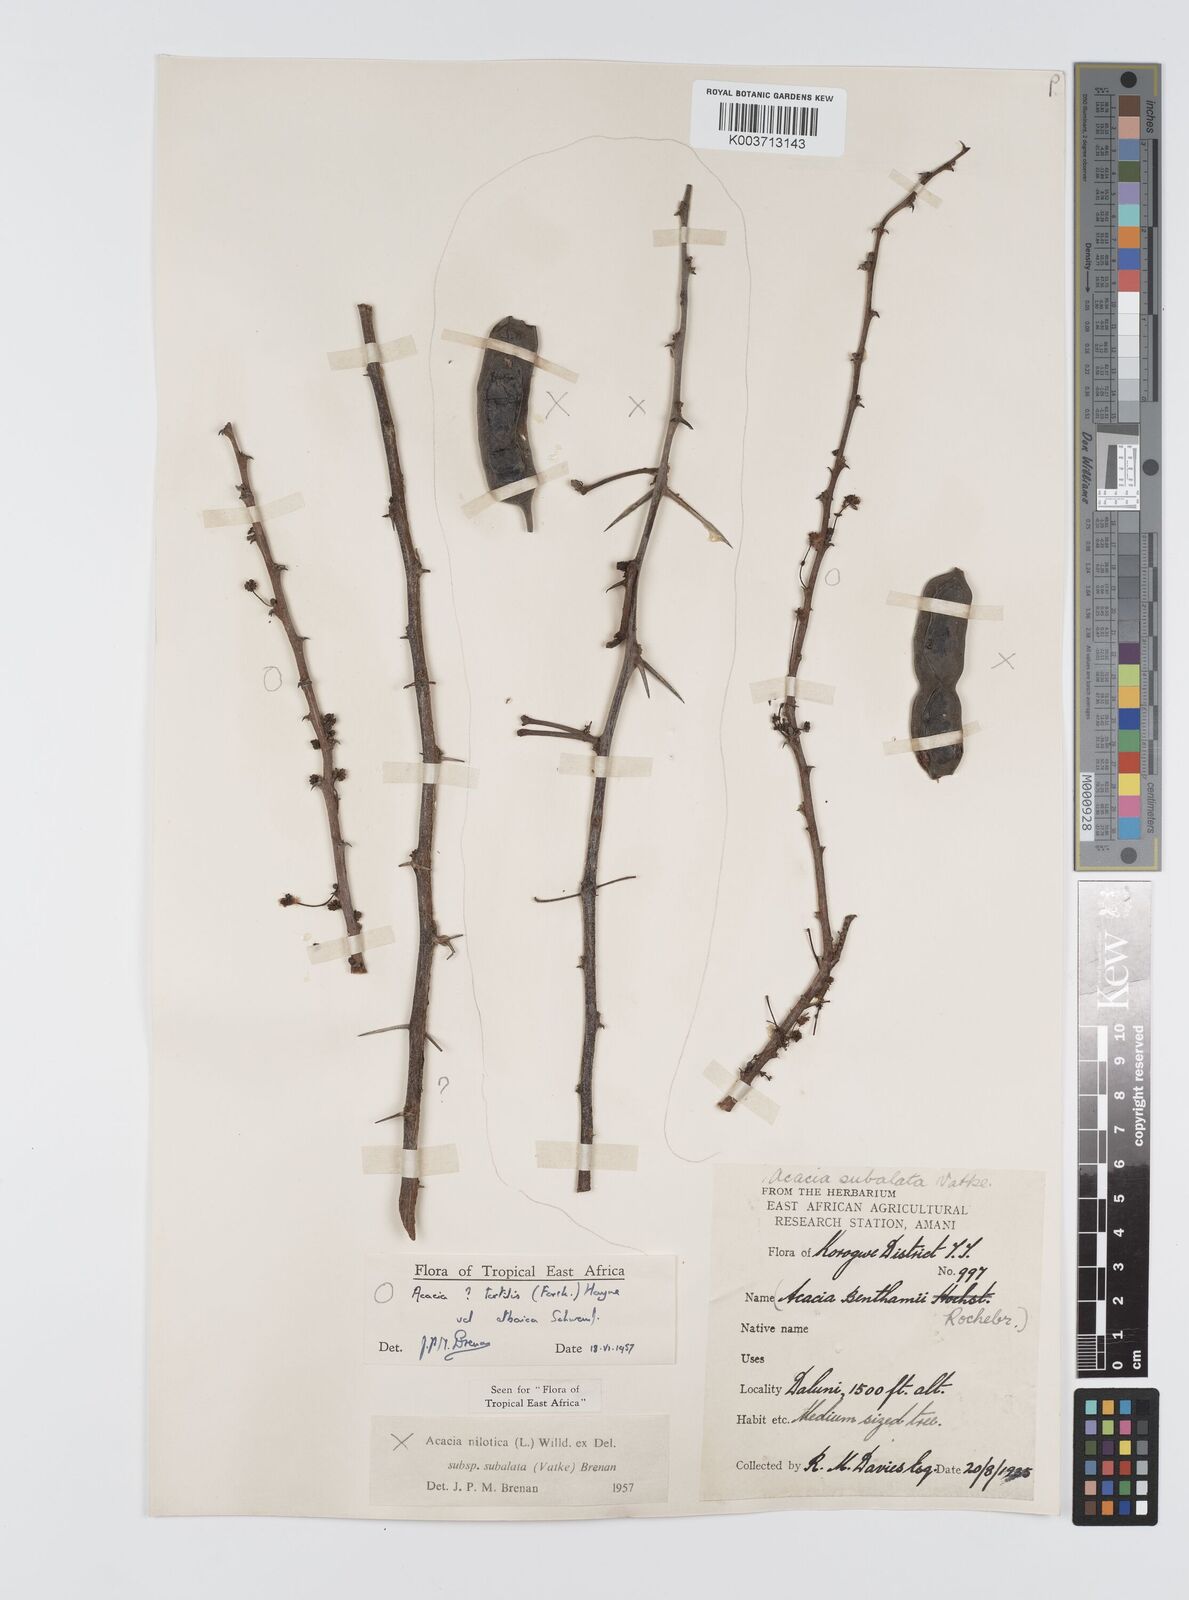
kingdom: Plantae
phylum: Tracheophyta
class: Magnoliopsida
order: Fabales
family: Fabaceae
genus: Vachellia
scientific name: Vachellia nilotica
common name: Arabic gumtree
